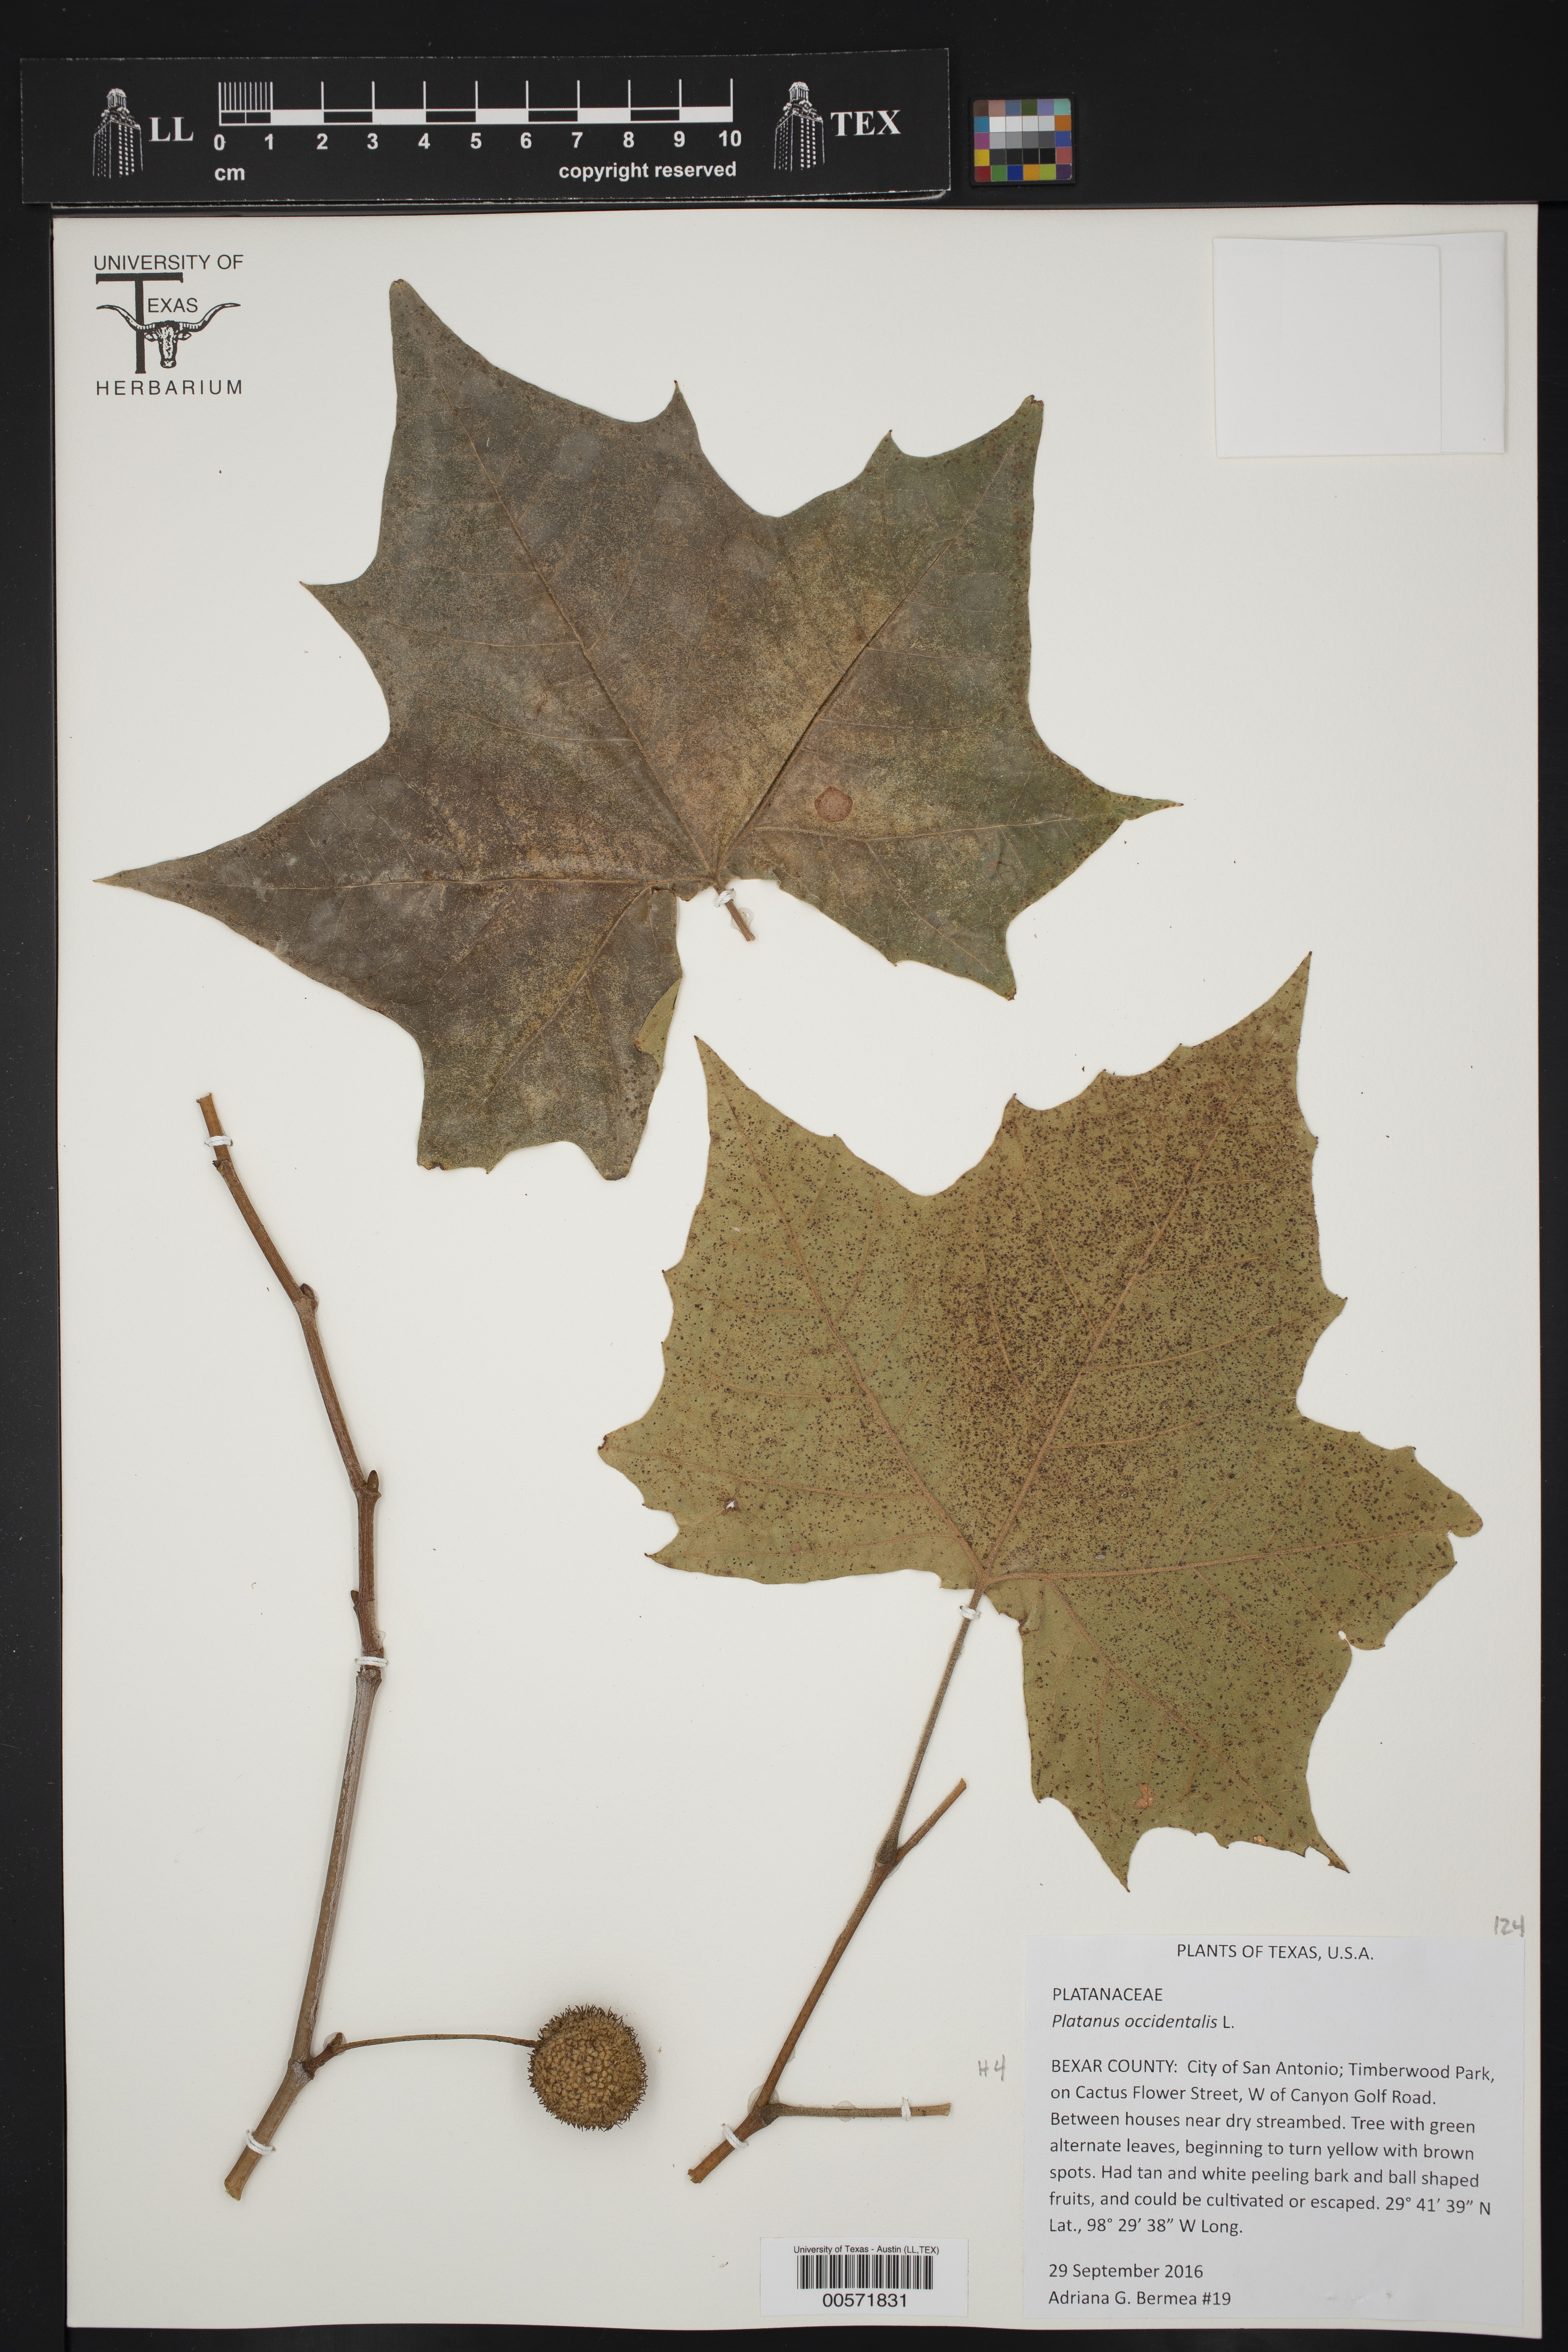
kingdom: Plantae
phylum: Tracheophyta
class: Magnoliopsida
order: Proteales
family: Platanaceae
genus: Platanus
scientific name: Platanus occidentalis
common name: American sycamore
